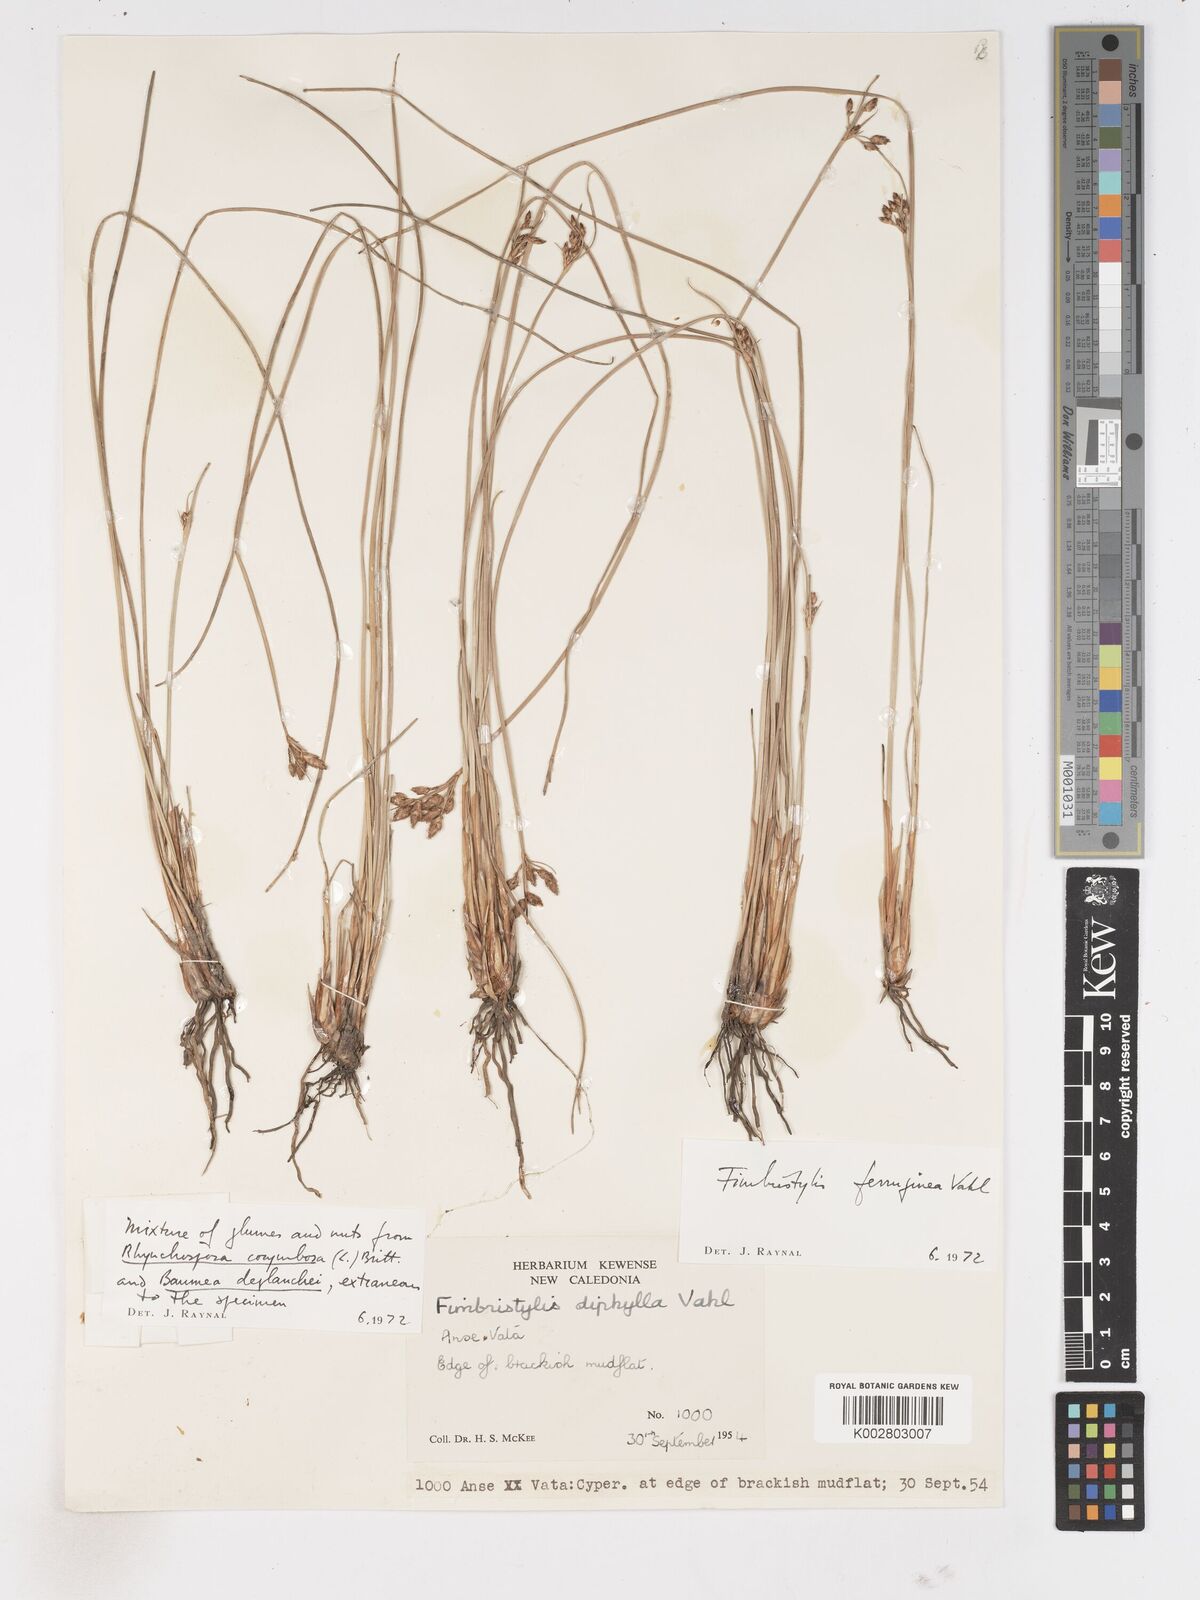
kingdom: Plantae
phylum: Tracheophyta
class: Liliopsida
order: Poales
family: Cyperaceae
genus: Fimbristylis
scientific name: Fimbristylis dichotoma
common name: Forked fimbry
